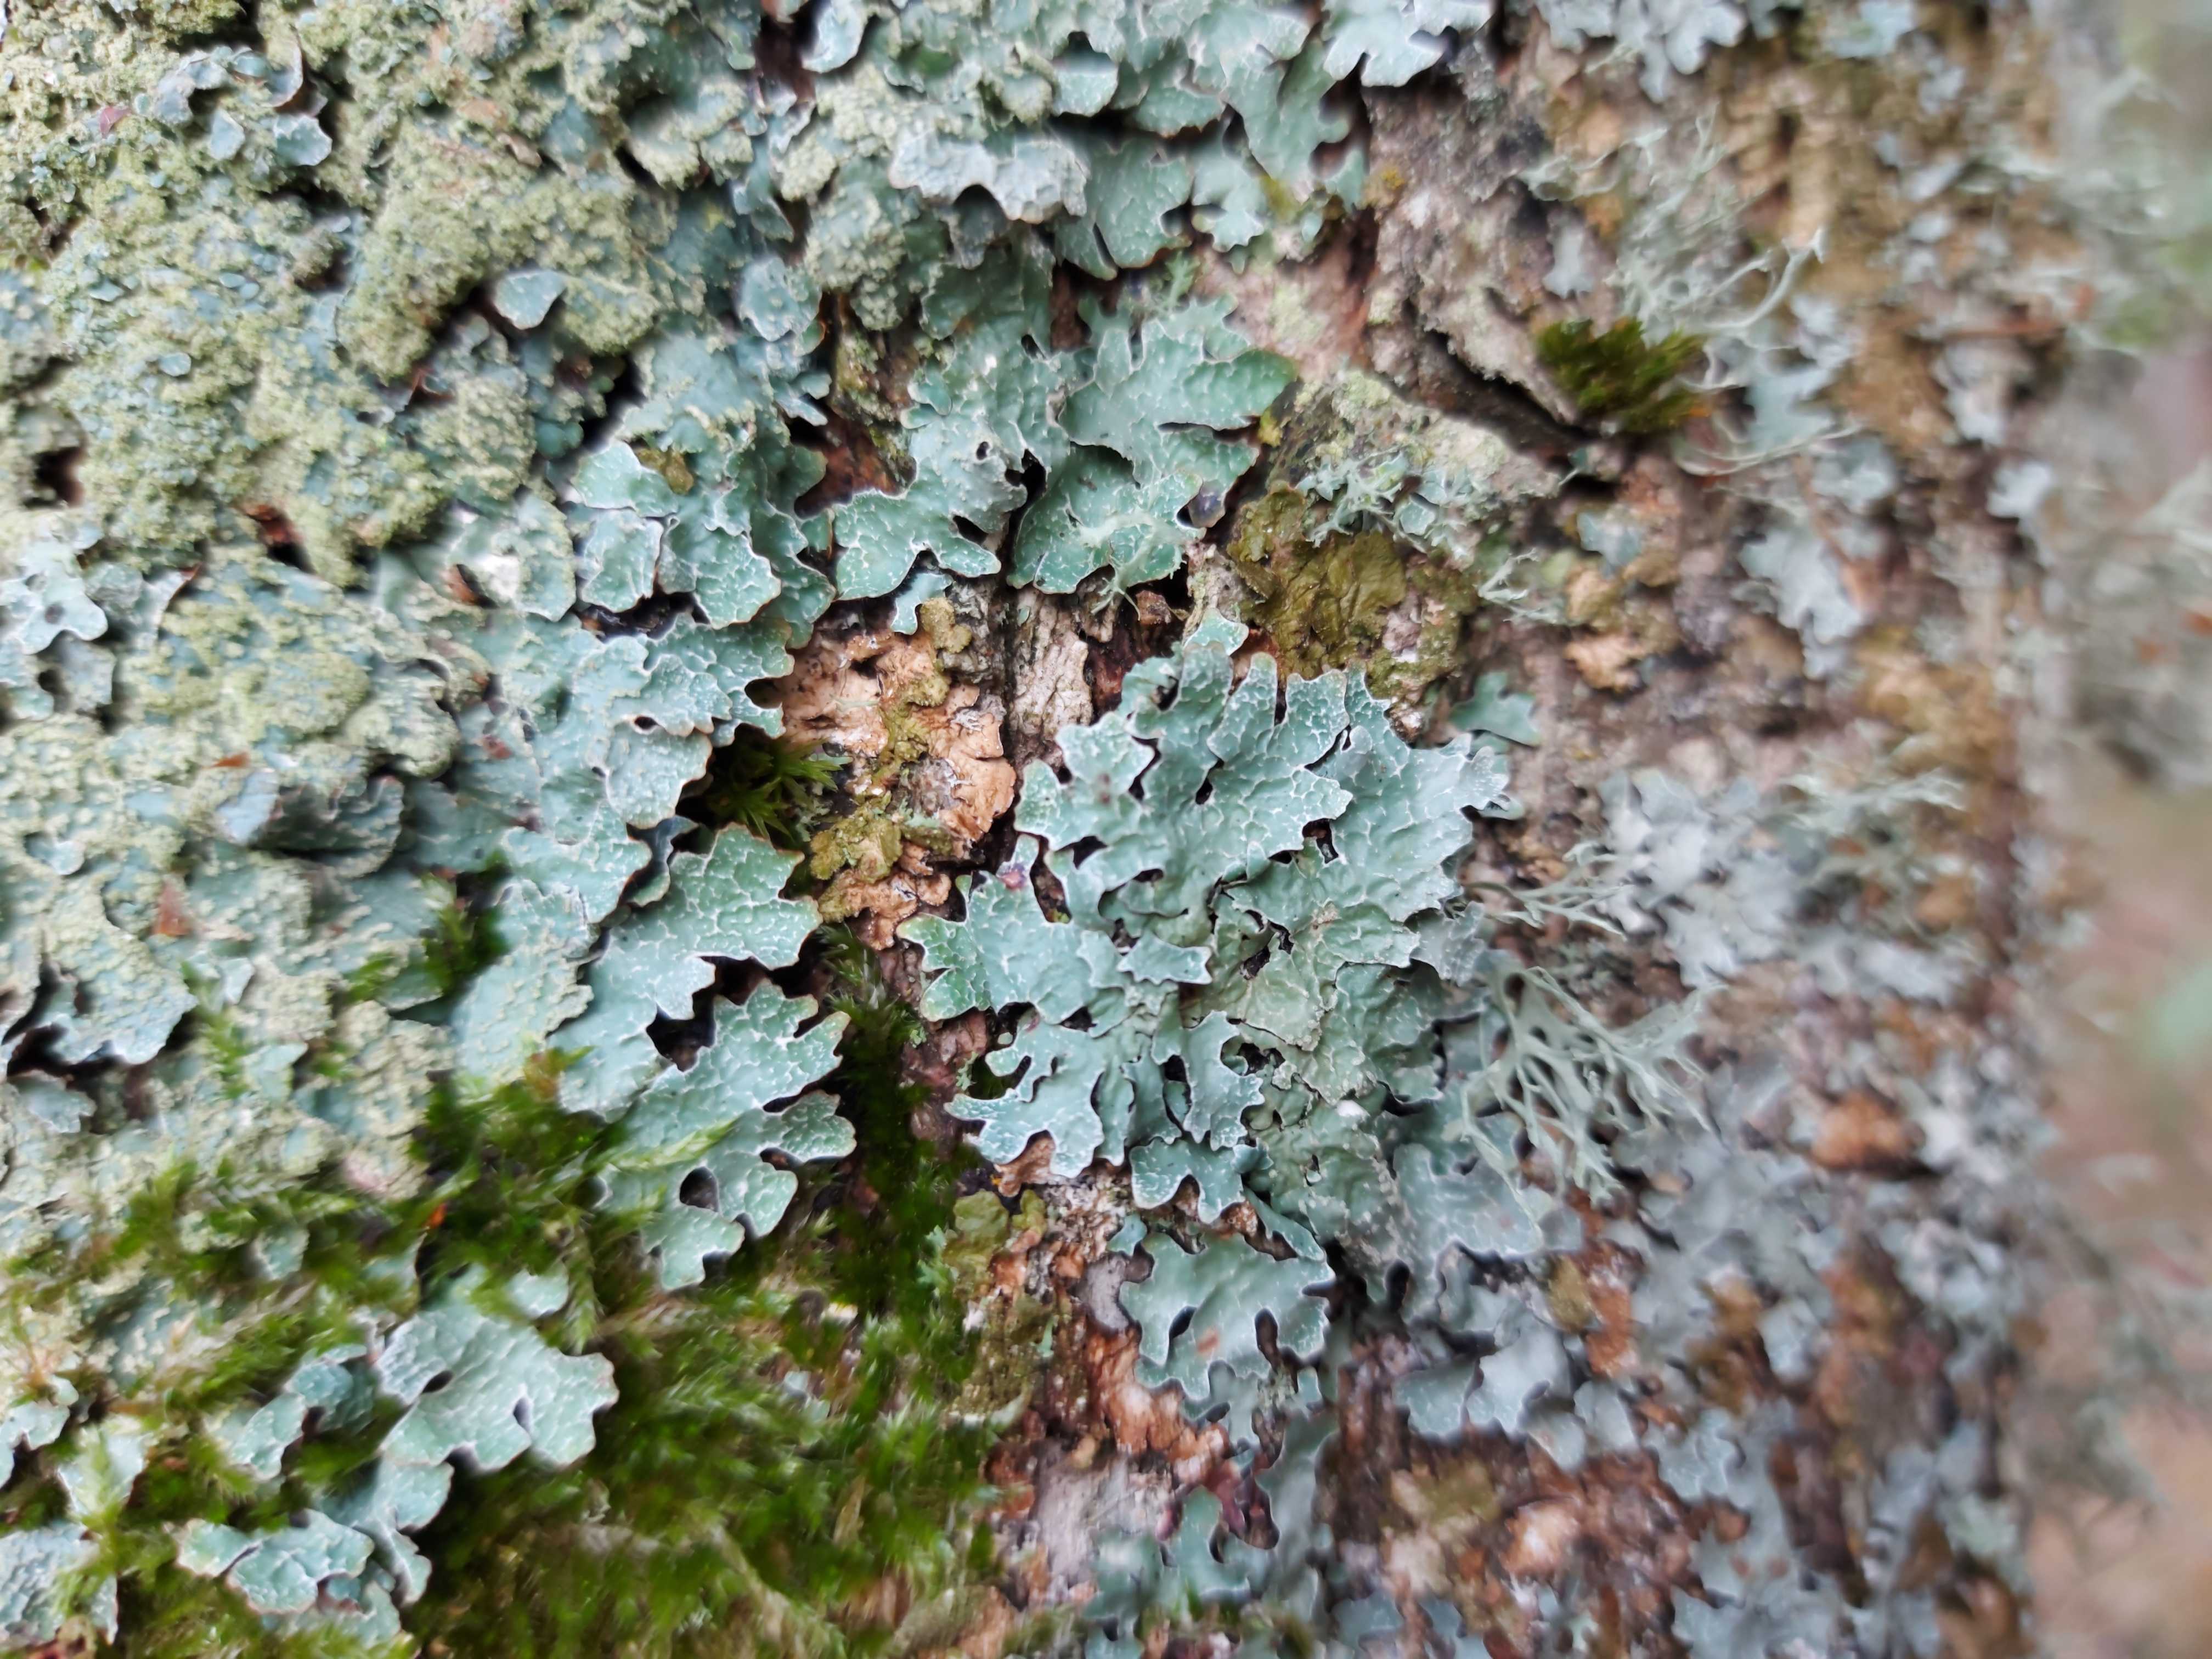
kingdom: Fungi
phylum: Ascomycota
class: Lecanoromycetes
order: Lecanorales
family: Parmeliaceae
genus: Parmelia
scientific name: Parmelia sulcata
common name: rynket skållav
